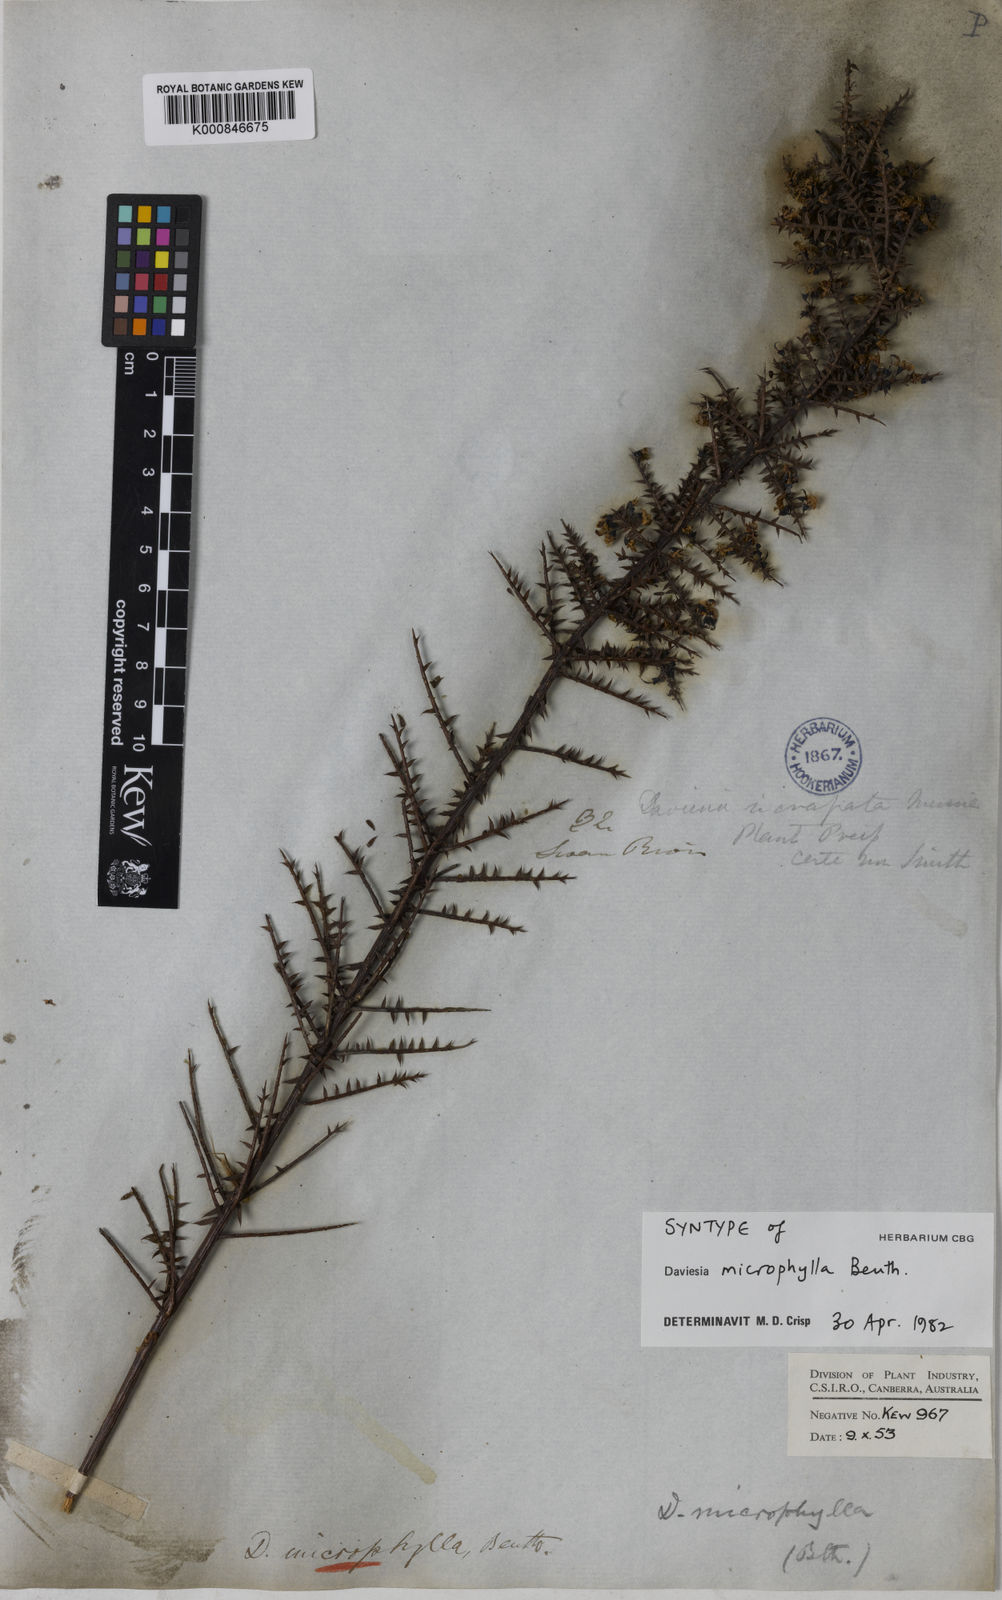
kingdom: Plantae
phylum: Tracheophyta
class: Magnoliopsida
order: Fabales
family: Fabaceae
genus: Daviesia
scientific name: Daviesia microphylla
